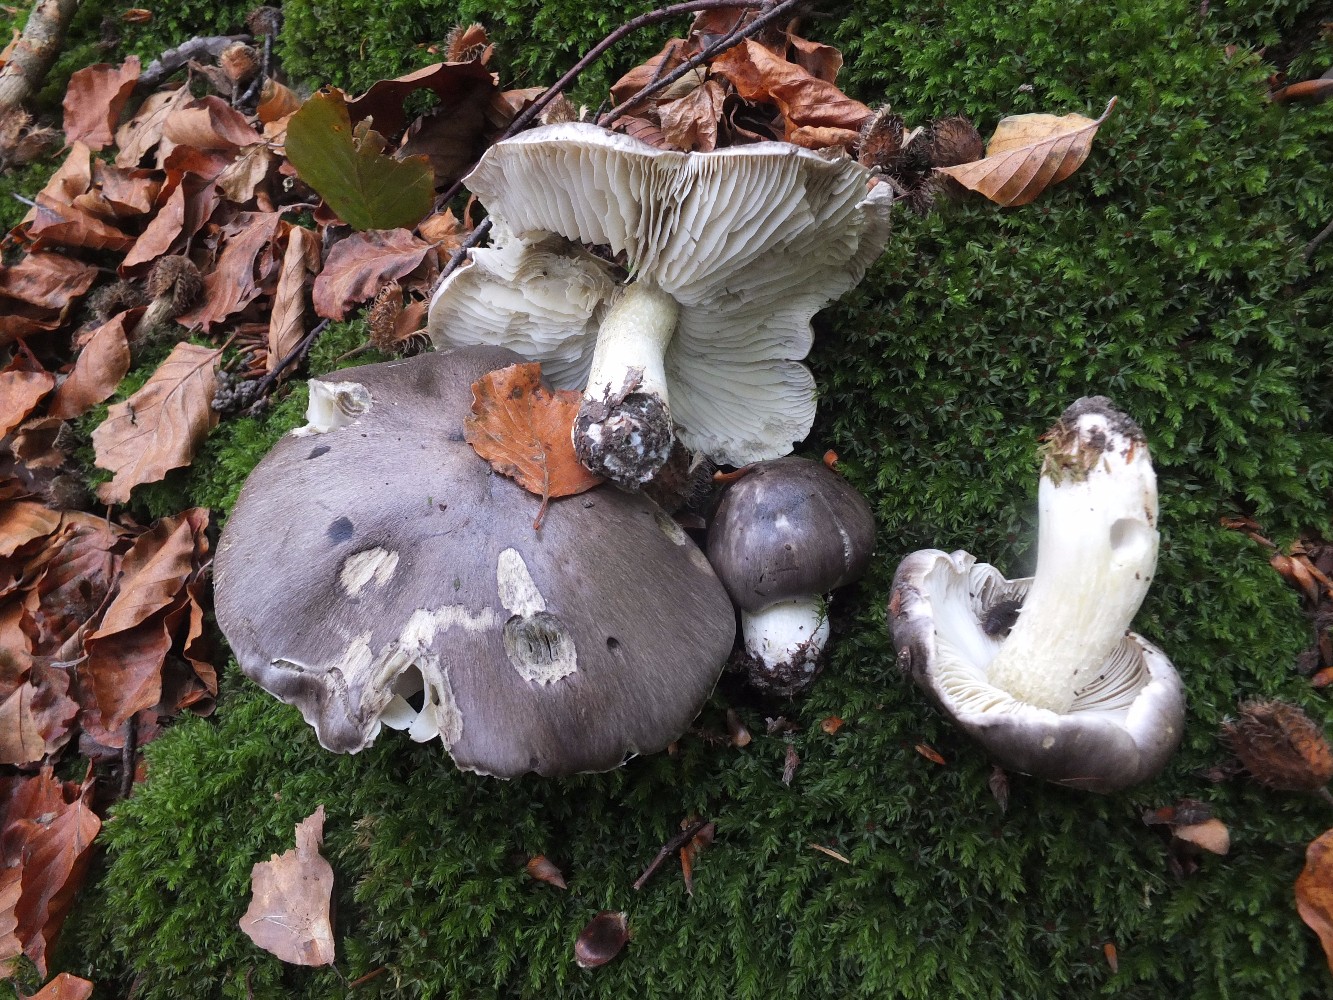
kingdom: Fungi
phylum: Basidiomycota
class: Agaricomycetes
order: Agaricales
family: Tricholomataceae
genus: Tricholoma
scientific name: Tricholoma portentosum
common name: grå ridderhat
